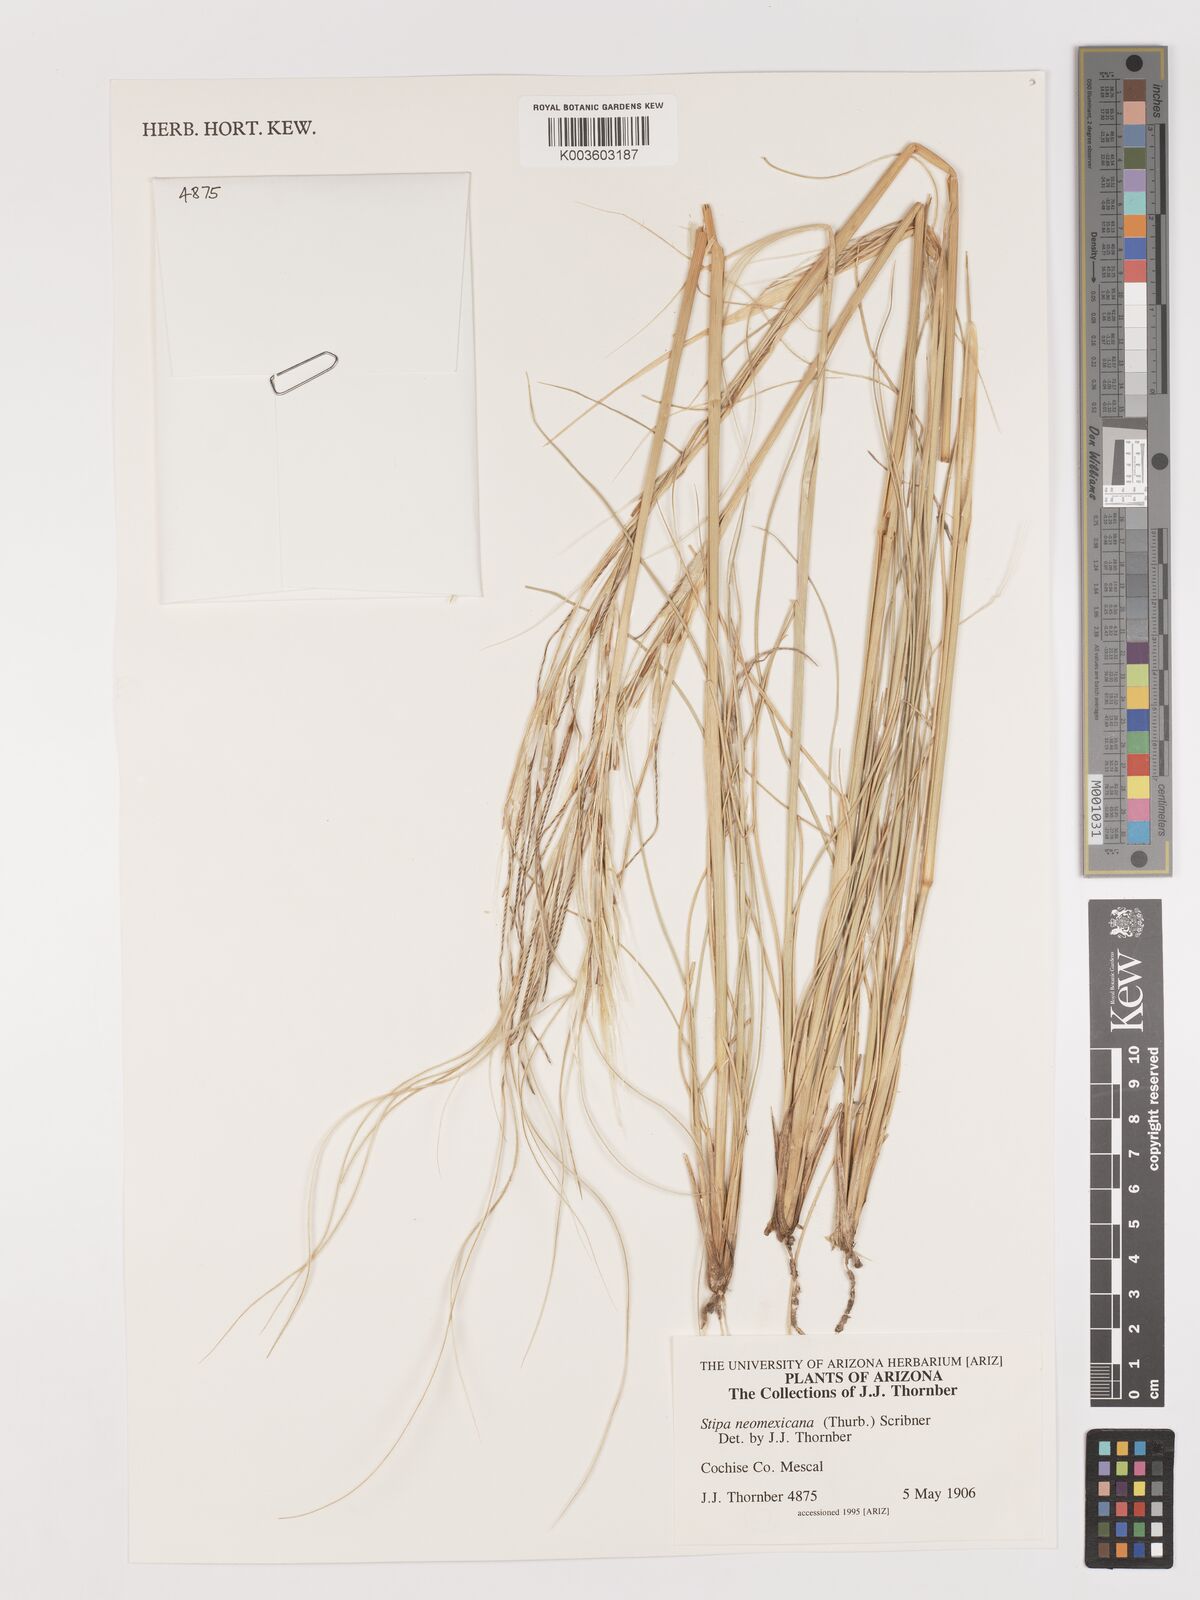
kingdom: Plantae
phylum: Tracheophyta
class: Liliopsida
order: Poales
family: Poaceae
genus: Hesperostipa
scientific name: Hesperostipa neomexicana
